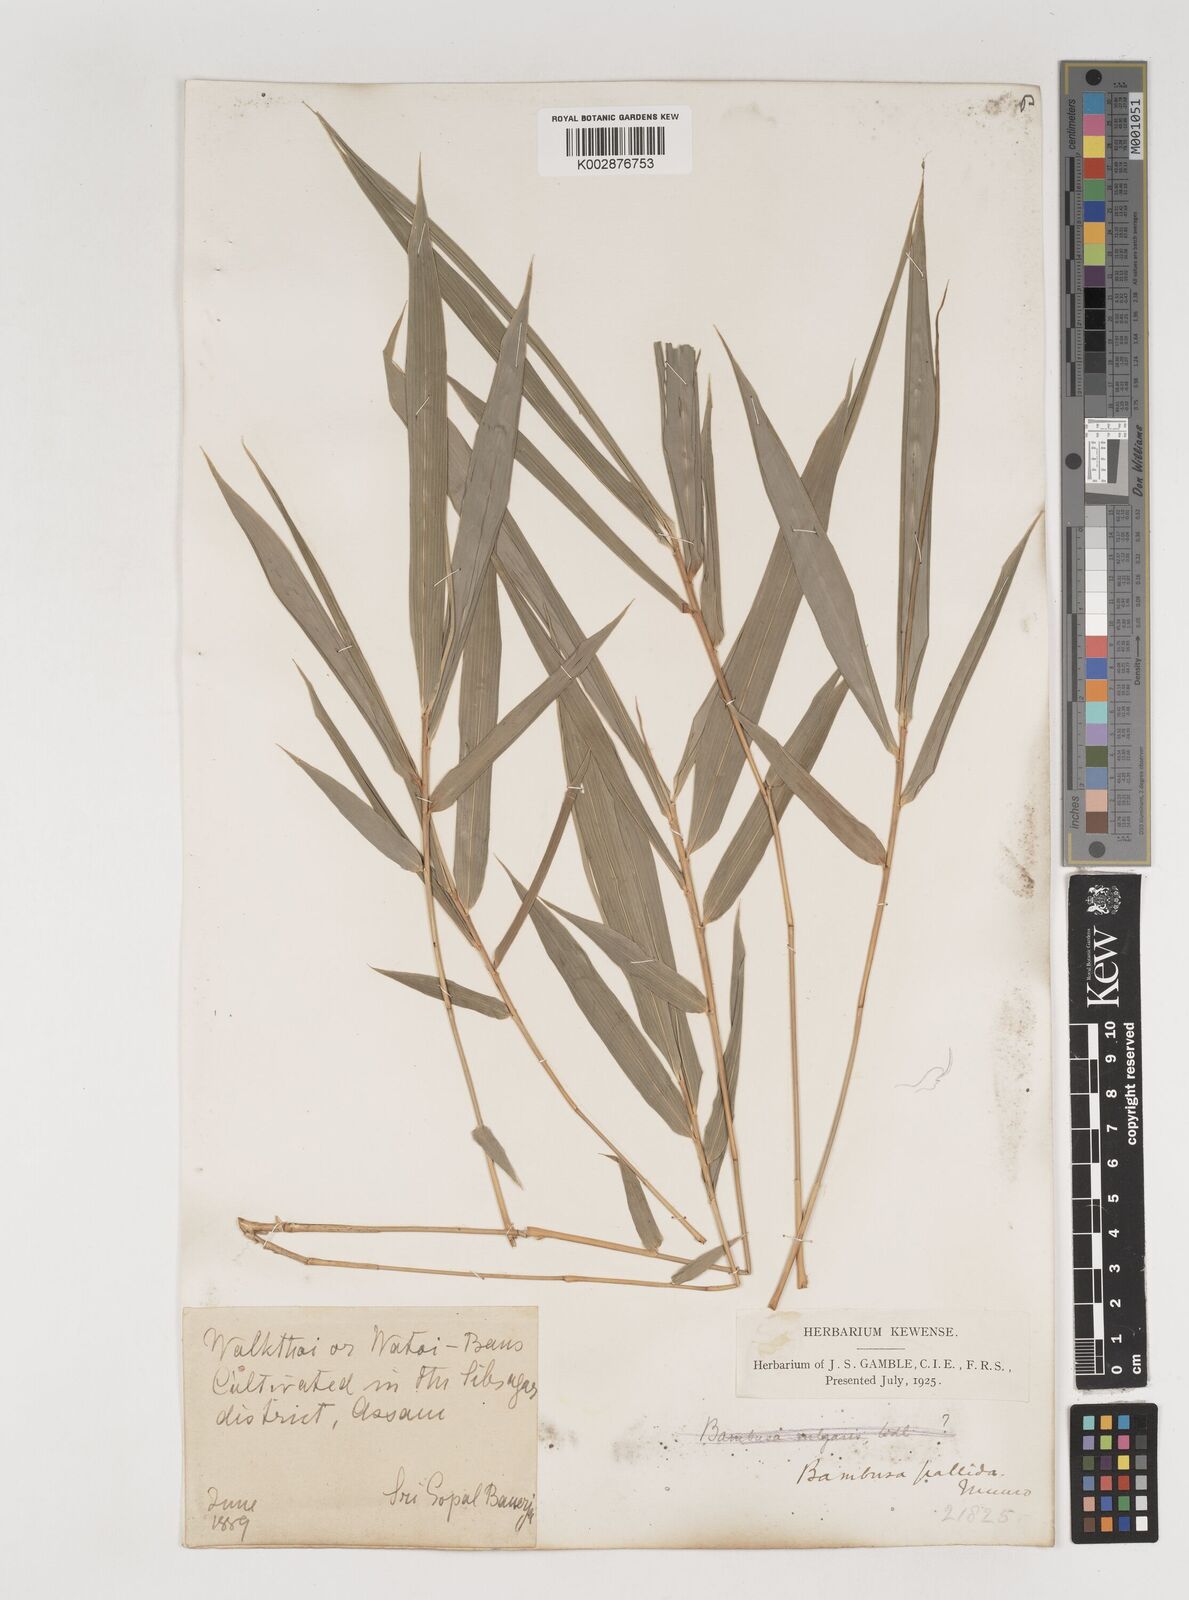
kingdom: Plantae
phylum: Tracheophyta
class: Liliopsida
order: Poales
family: Poaceae
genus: Bambusa
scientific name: Bambusa pallida
